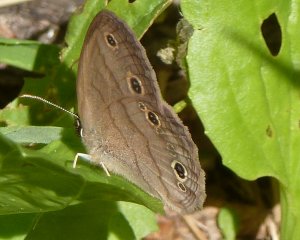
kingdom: Animalia
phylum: Arthropoda
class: Insecta
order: Lepidoptera
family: Nymphalidae
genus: Euptychia
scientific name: Euptychia cymela
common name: Little Wood Satyr
